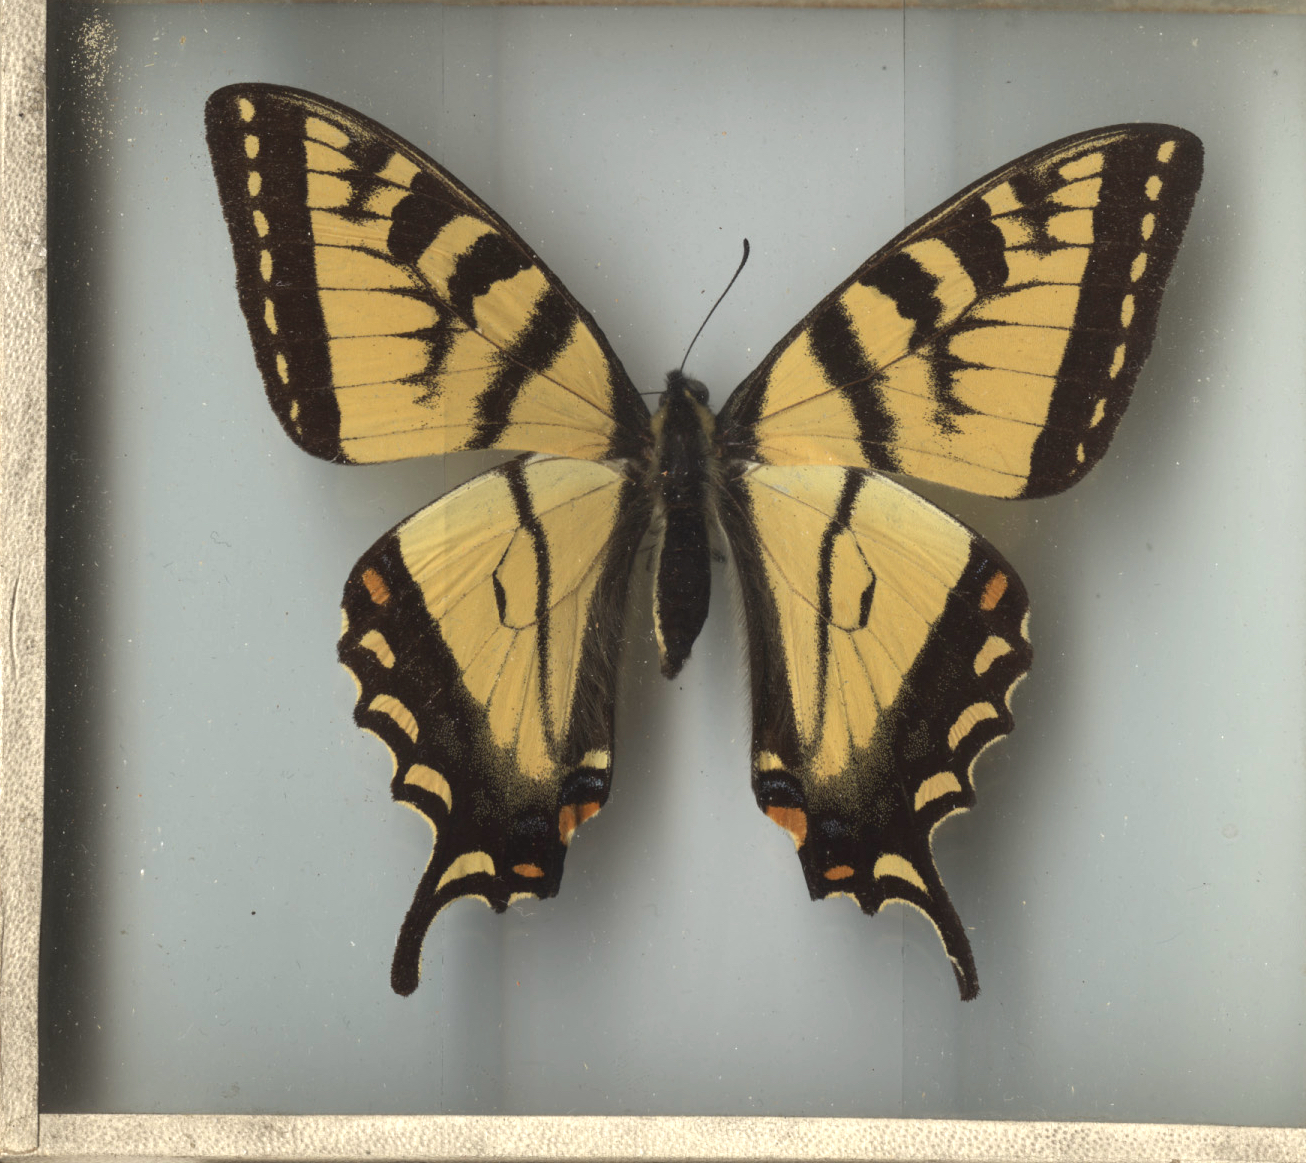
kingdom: Animalia
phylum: Arthropoda
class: Insecta
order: Lepidoptera
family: Papilionidae
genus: Papilio
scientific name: Papilio canadensis
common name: Canadian Tiger Swallowtail
